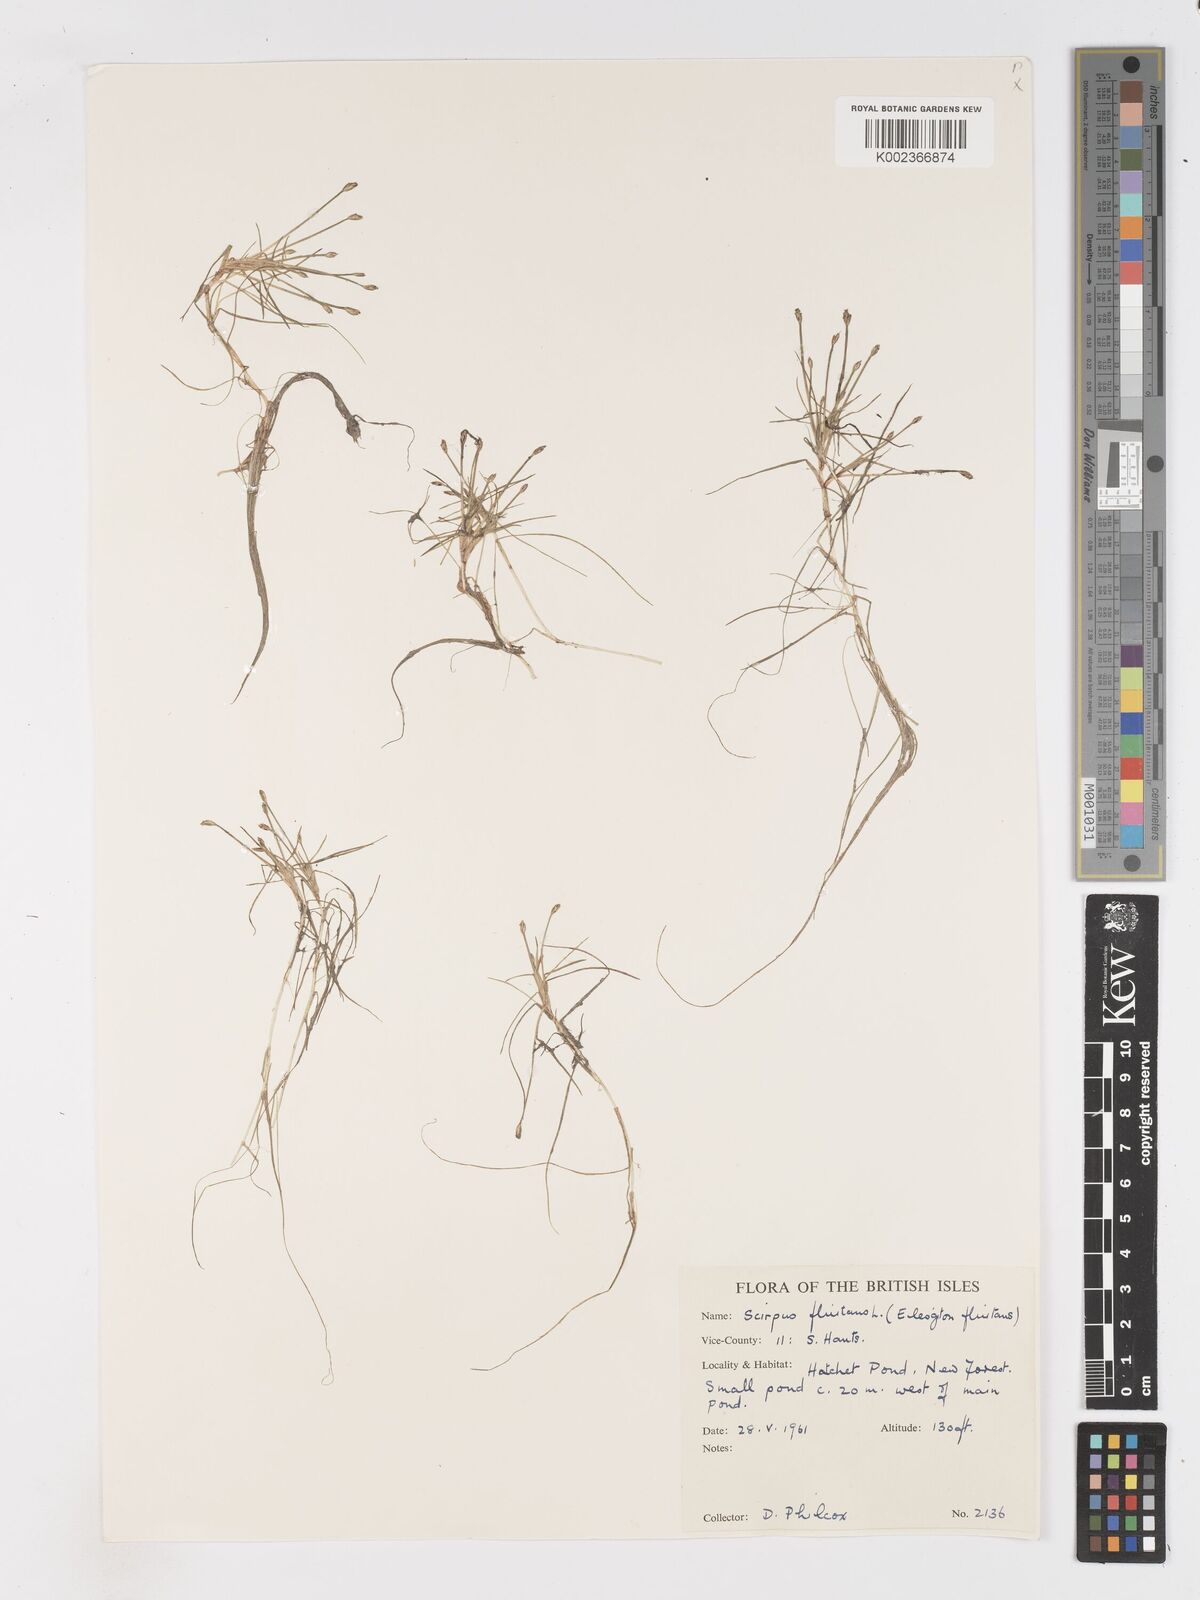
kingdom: Plantae
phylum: Tracheophyta
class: Liliopsida
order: Poales
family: Cyperaceae
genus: Isolepis
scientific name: Isolepis fluitans
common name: Floating club-rush
